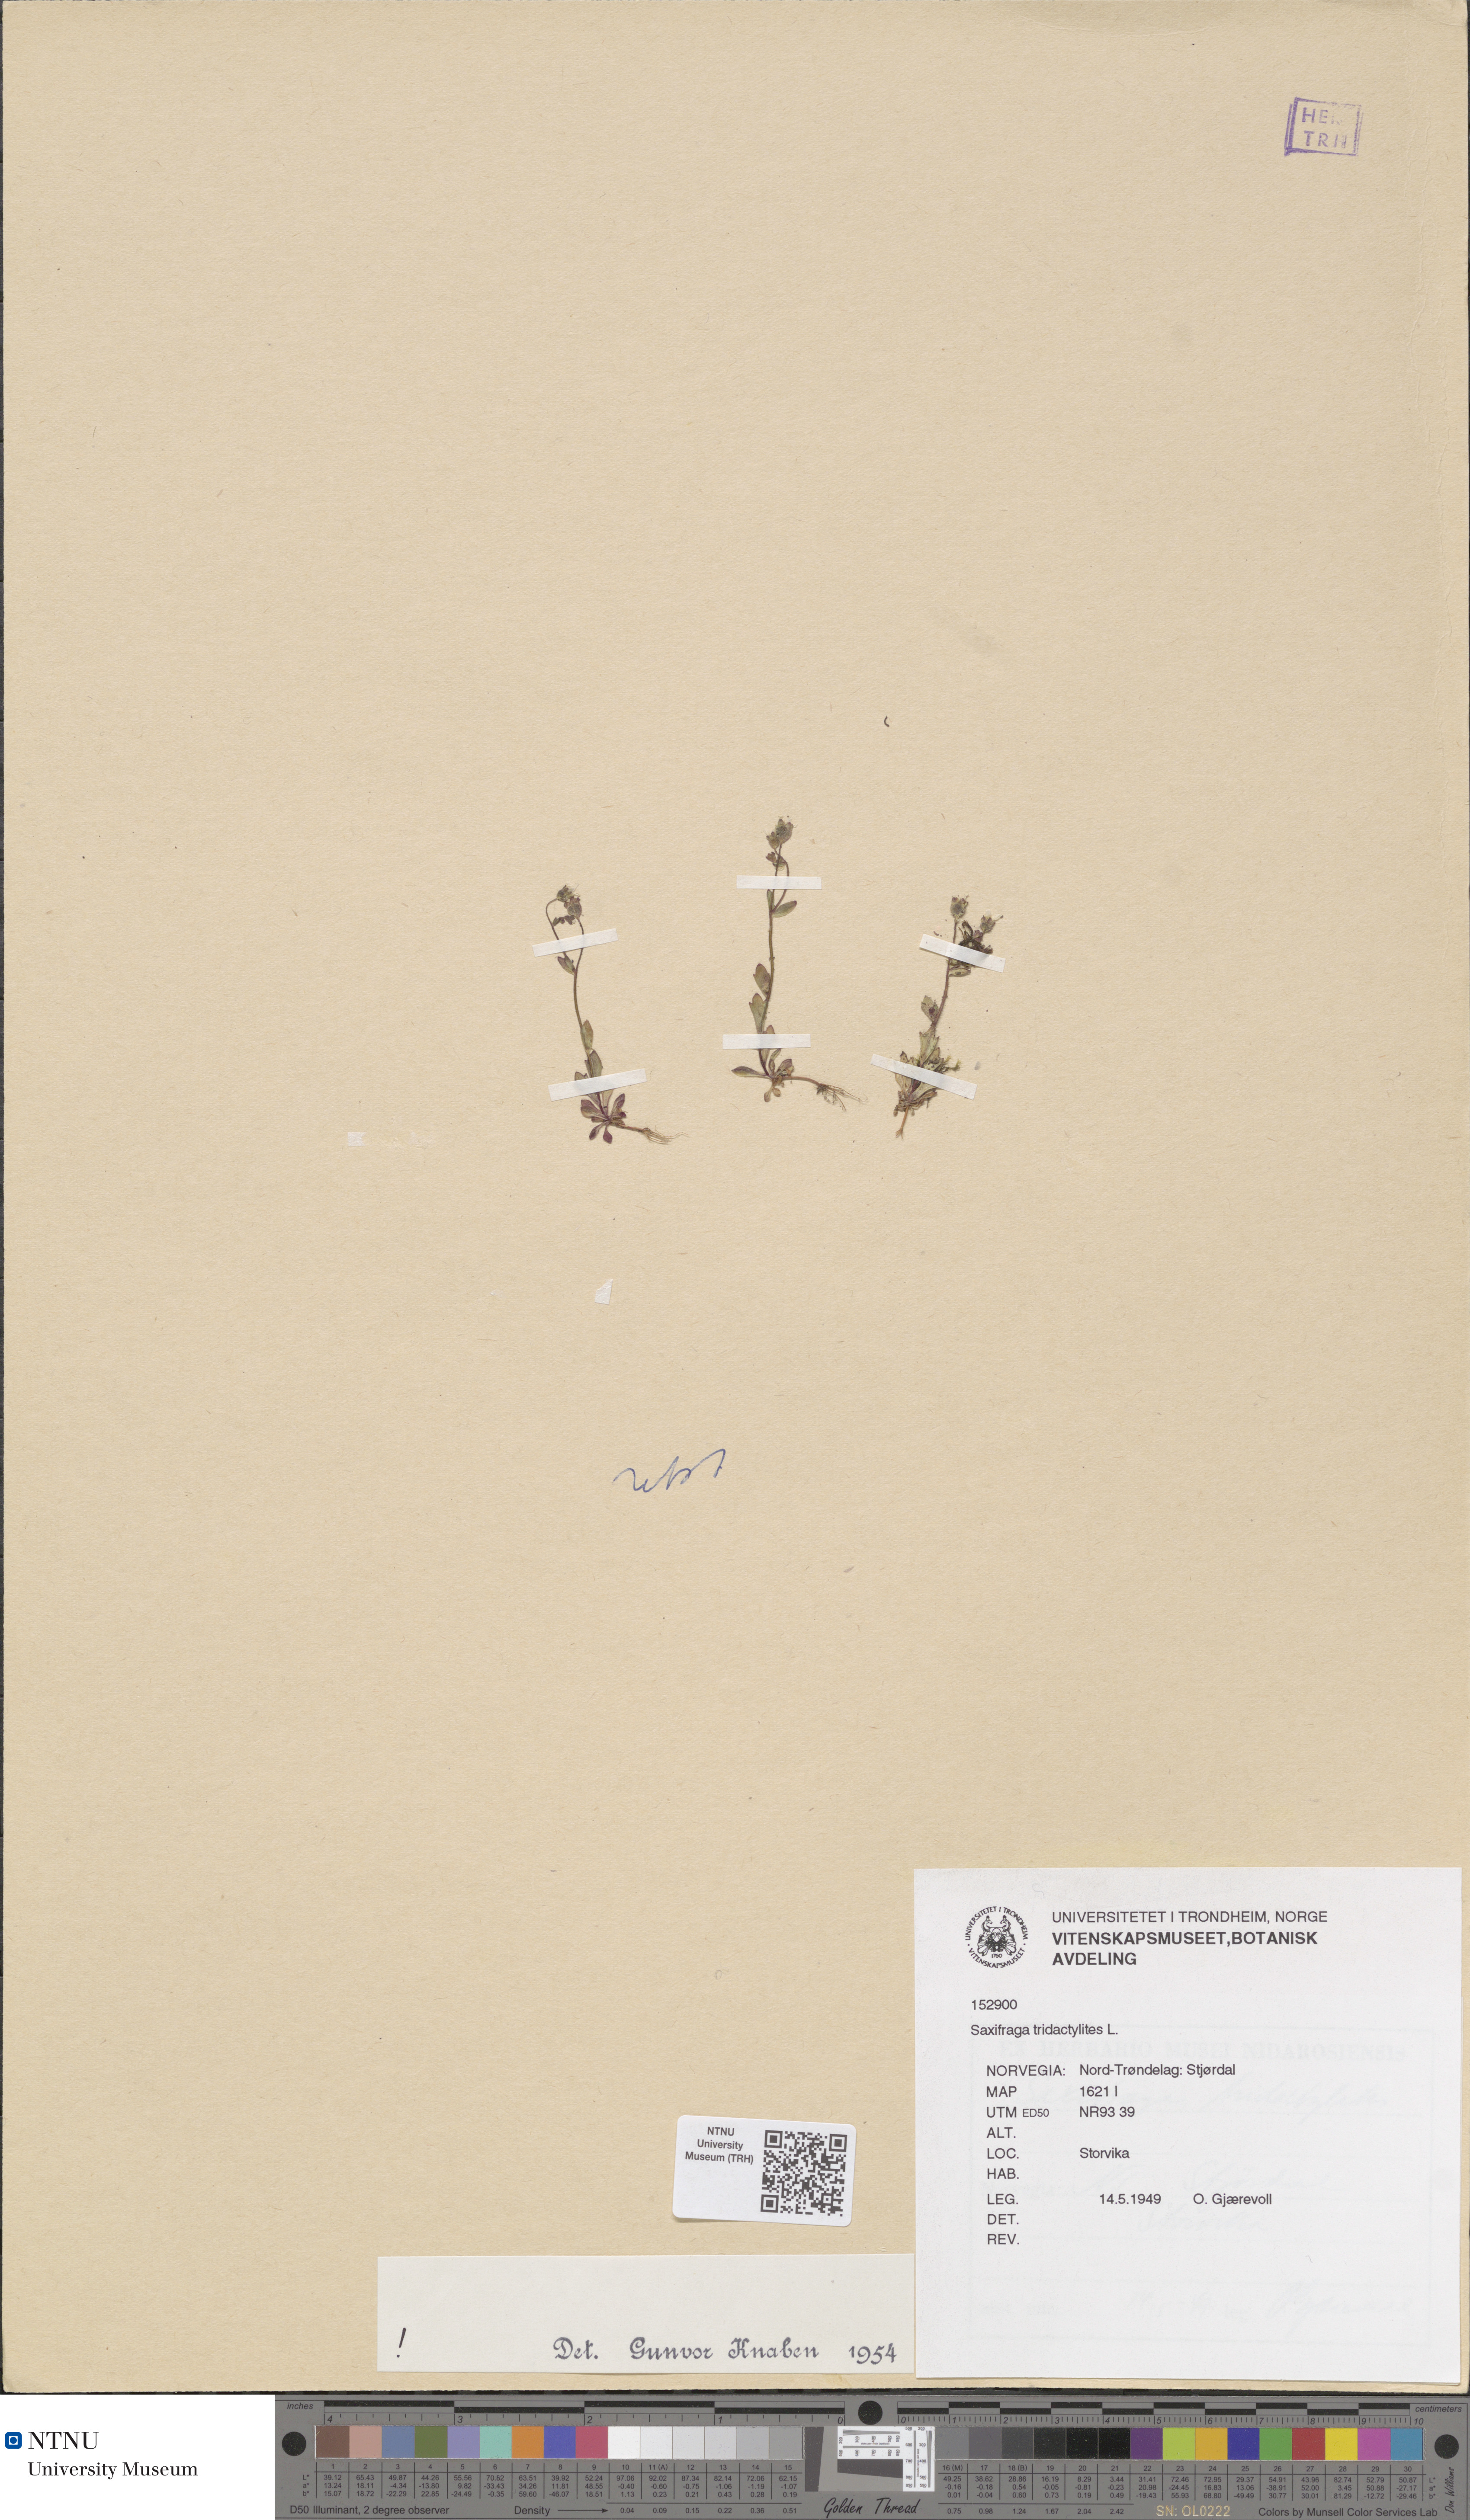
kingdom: Plantae
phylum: Tracheophyta
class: Magnoliopsida
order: Saxifragales
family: Saxifragaceae
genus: Saxifraga
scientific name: Saxifraga tridactylites
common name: Rue-leaved saxifrage
